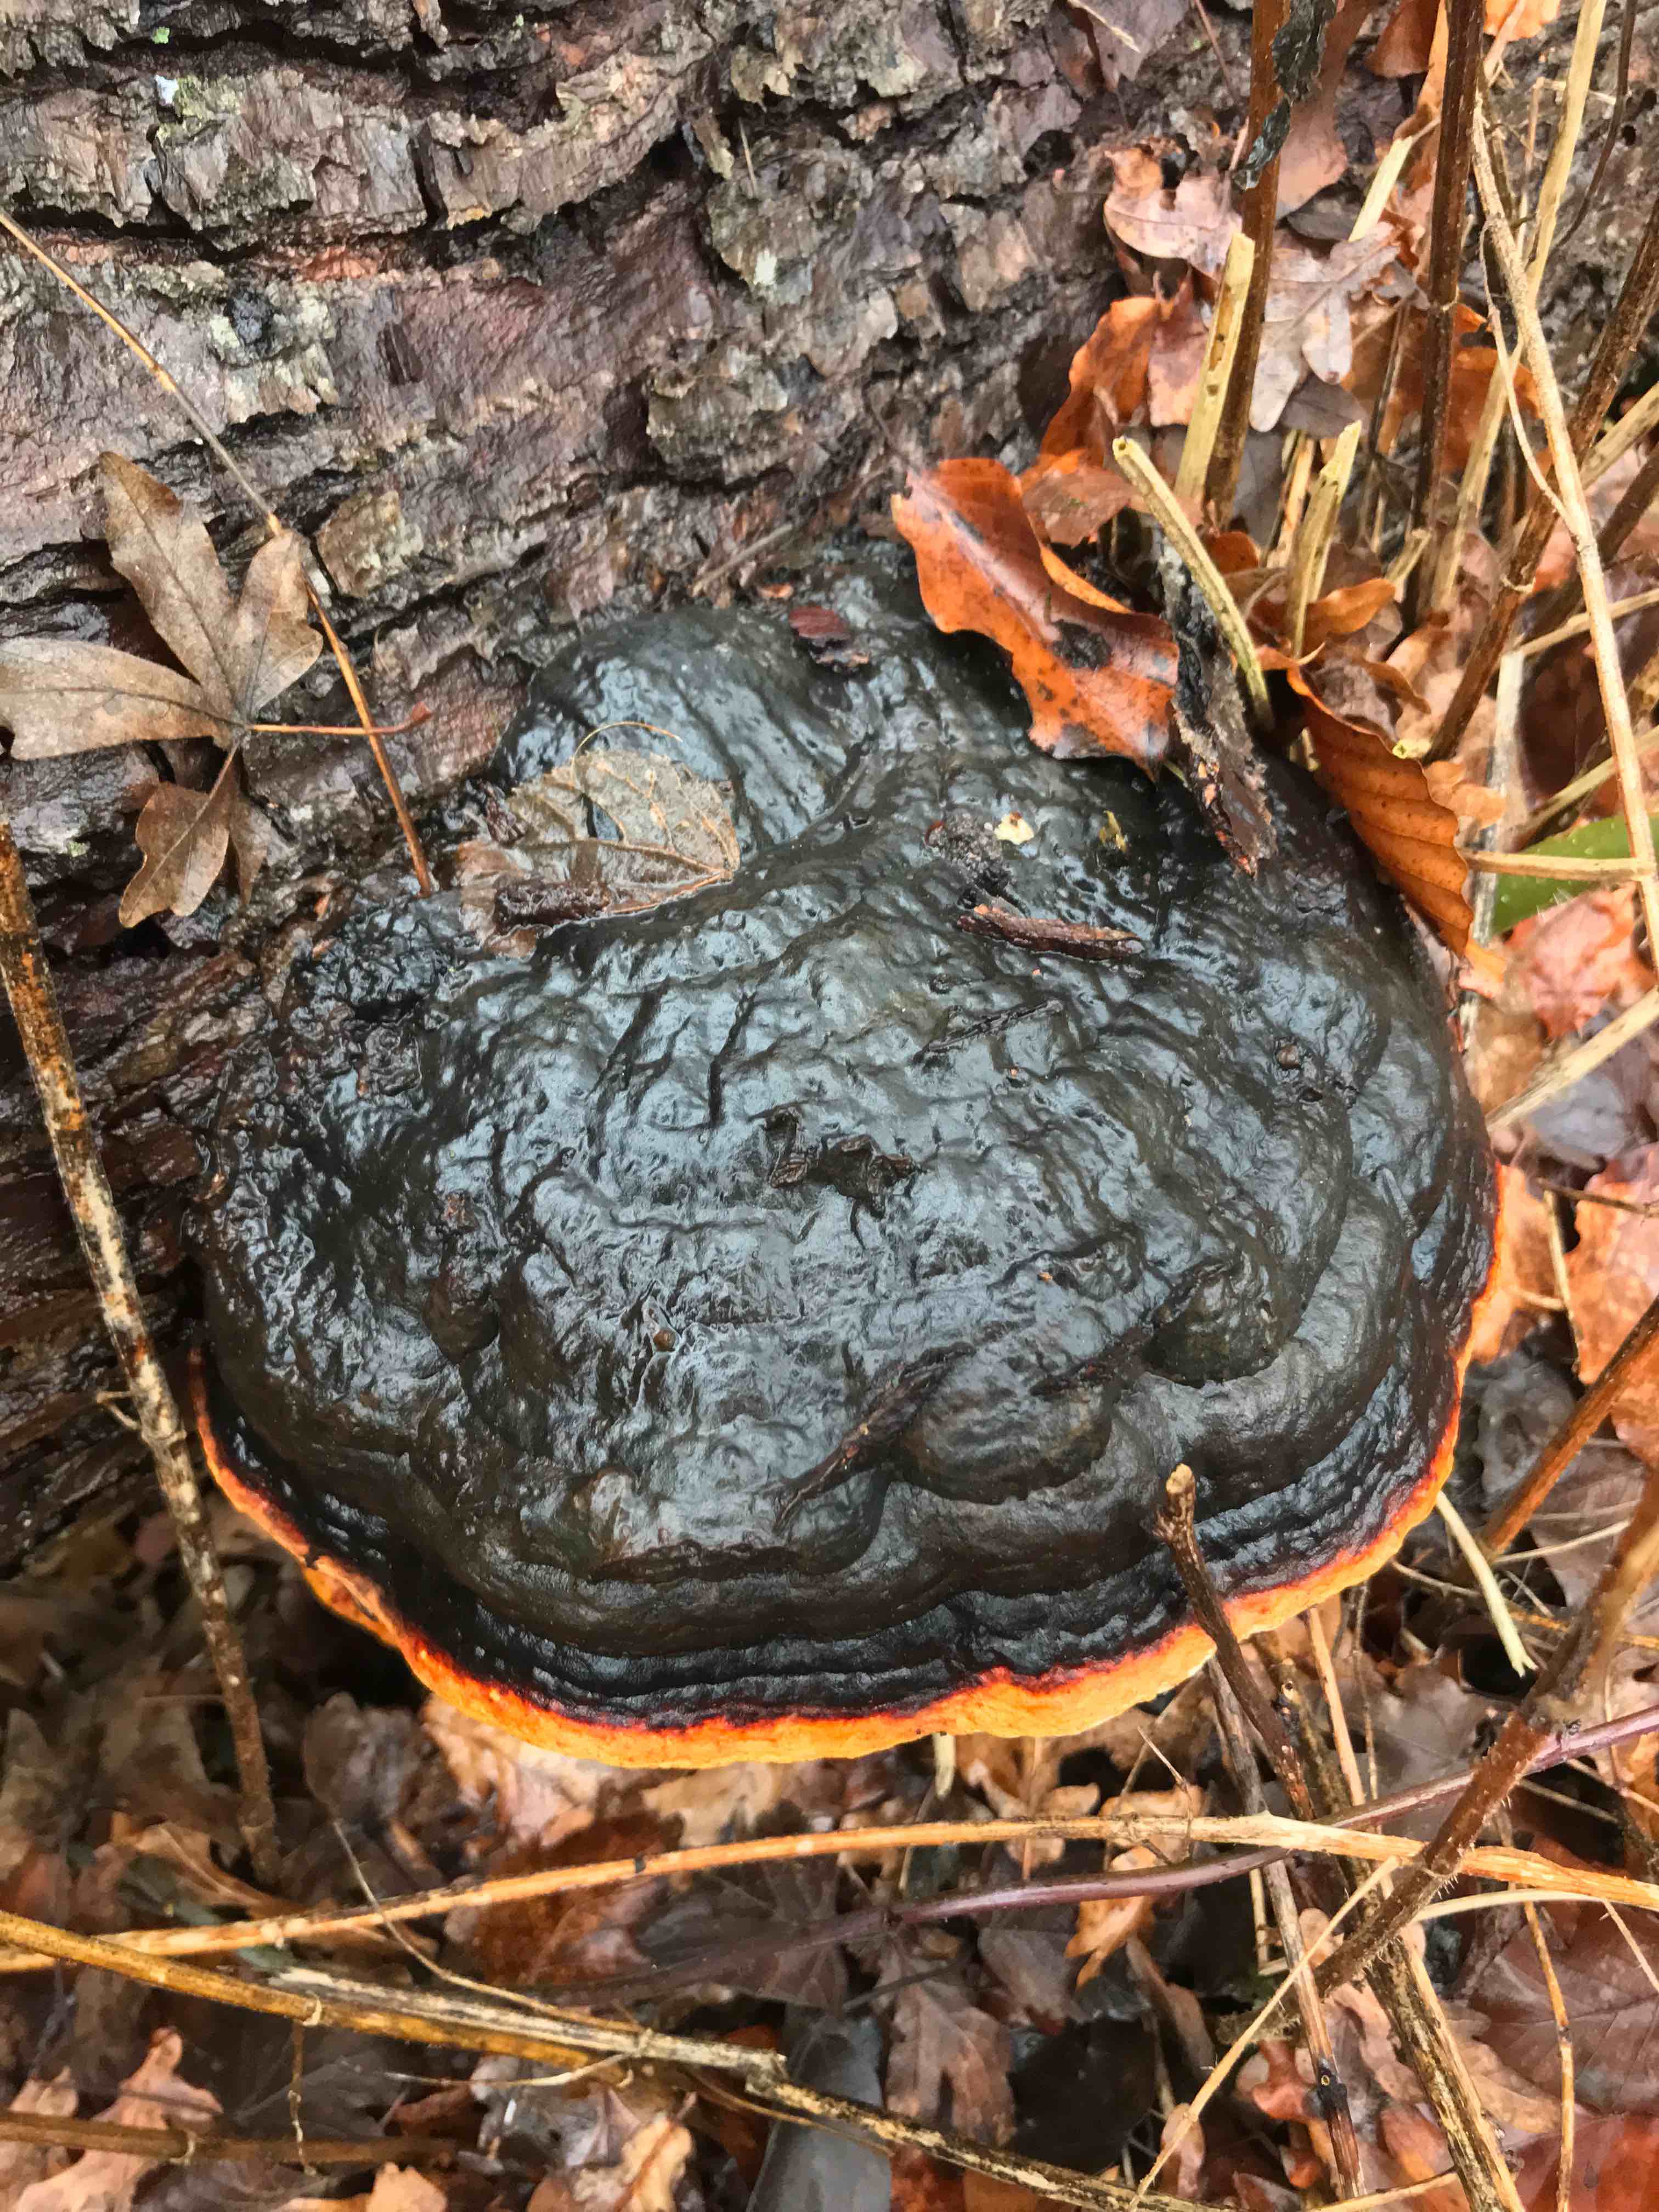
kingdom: Fungi
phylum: Basidiomycota
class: Agaricomycetes
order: Polyporales
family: Fomitopsidaceae
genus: Fomitopsis
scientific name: Fomitopsis pinicola
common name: randbæltet hovporesvamp
